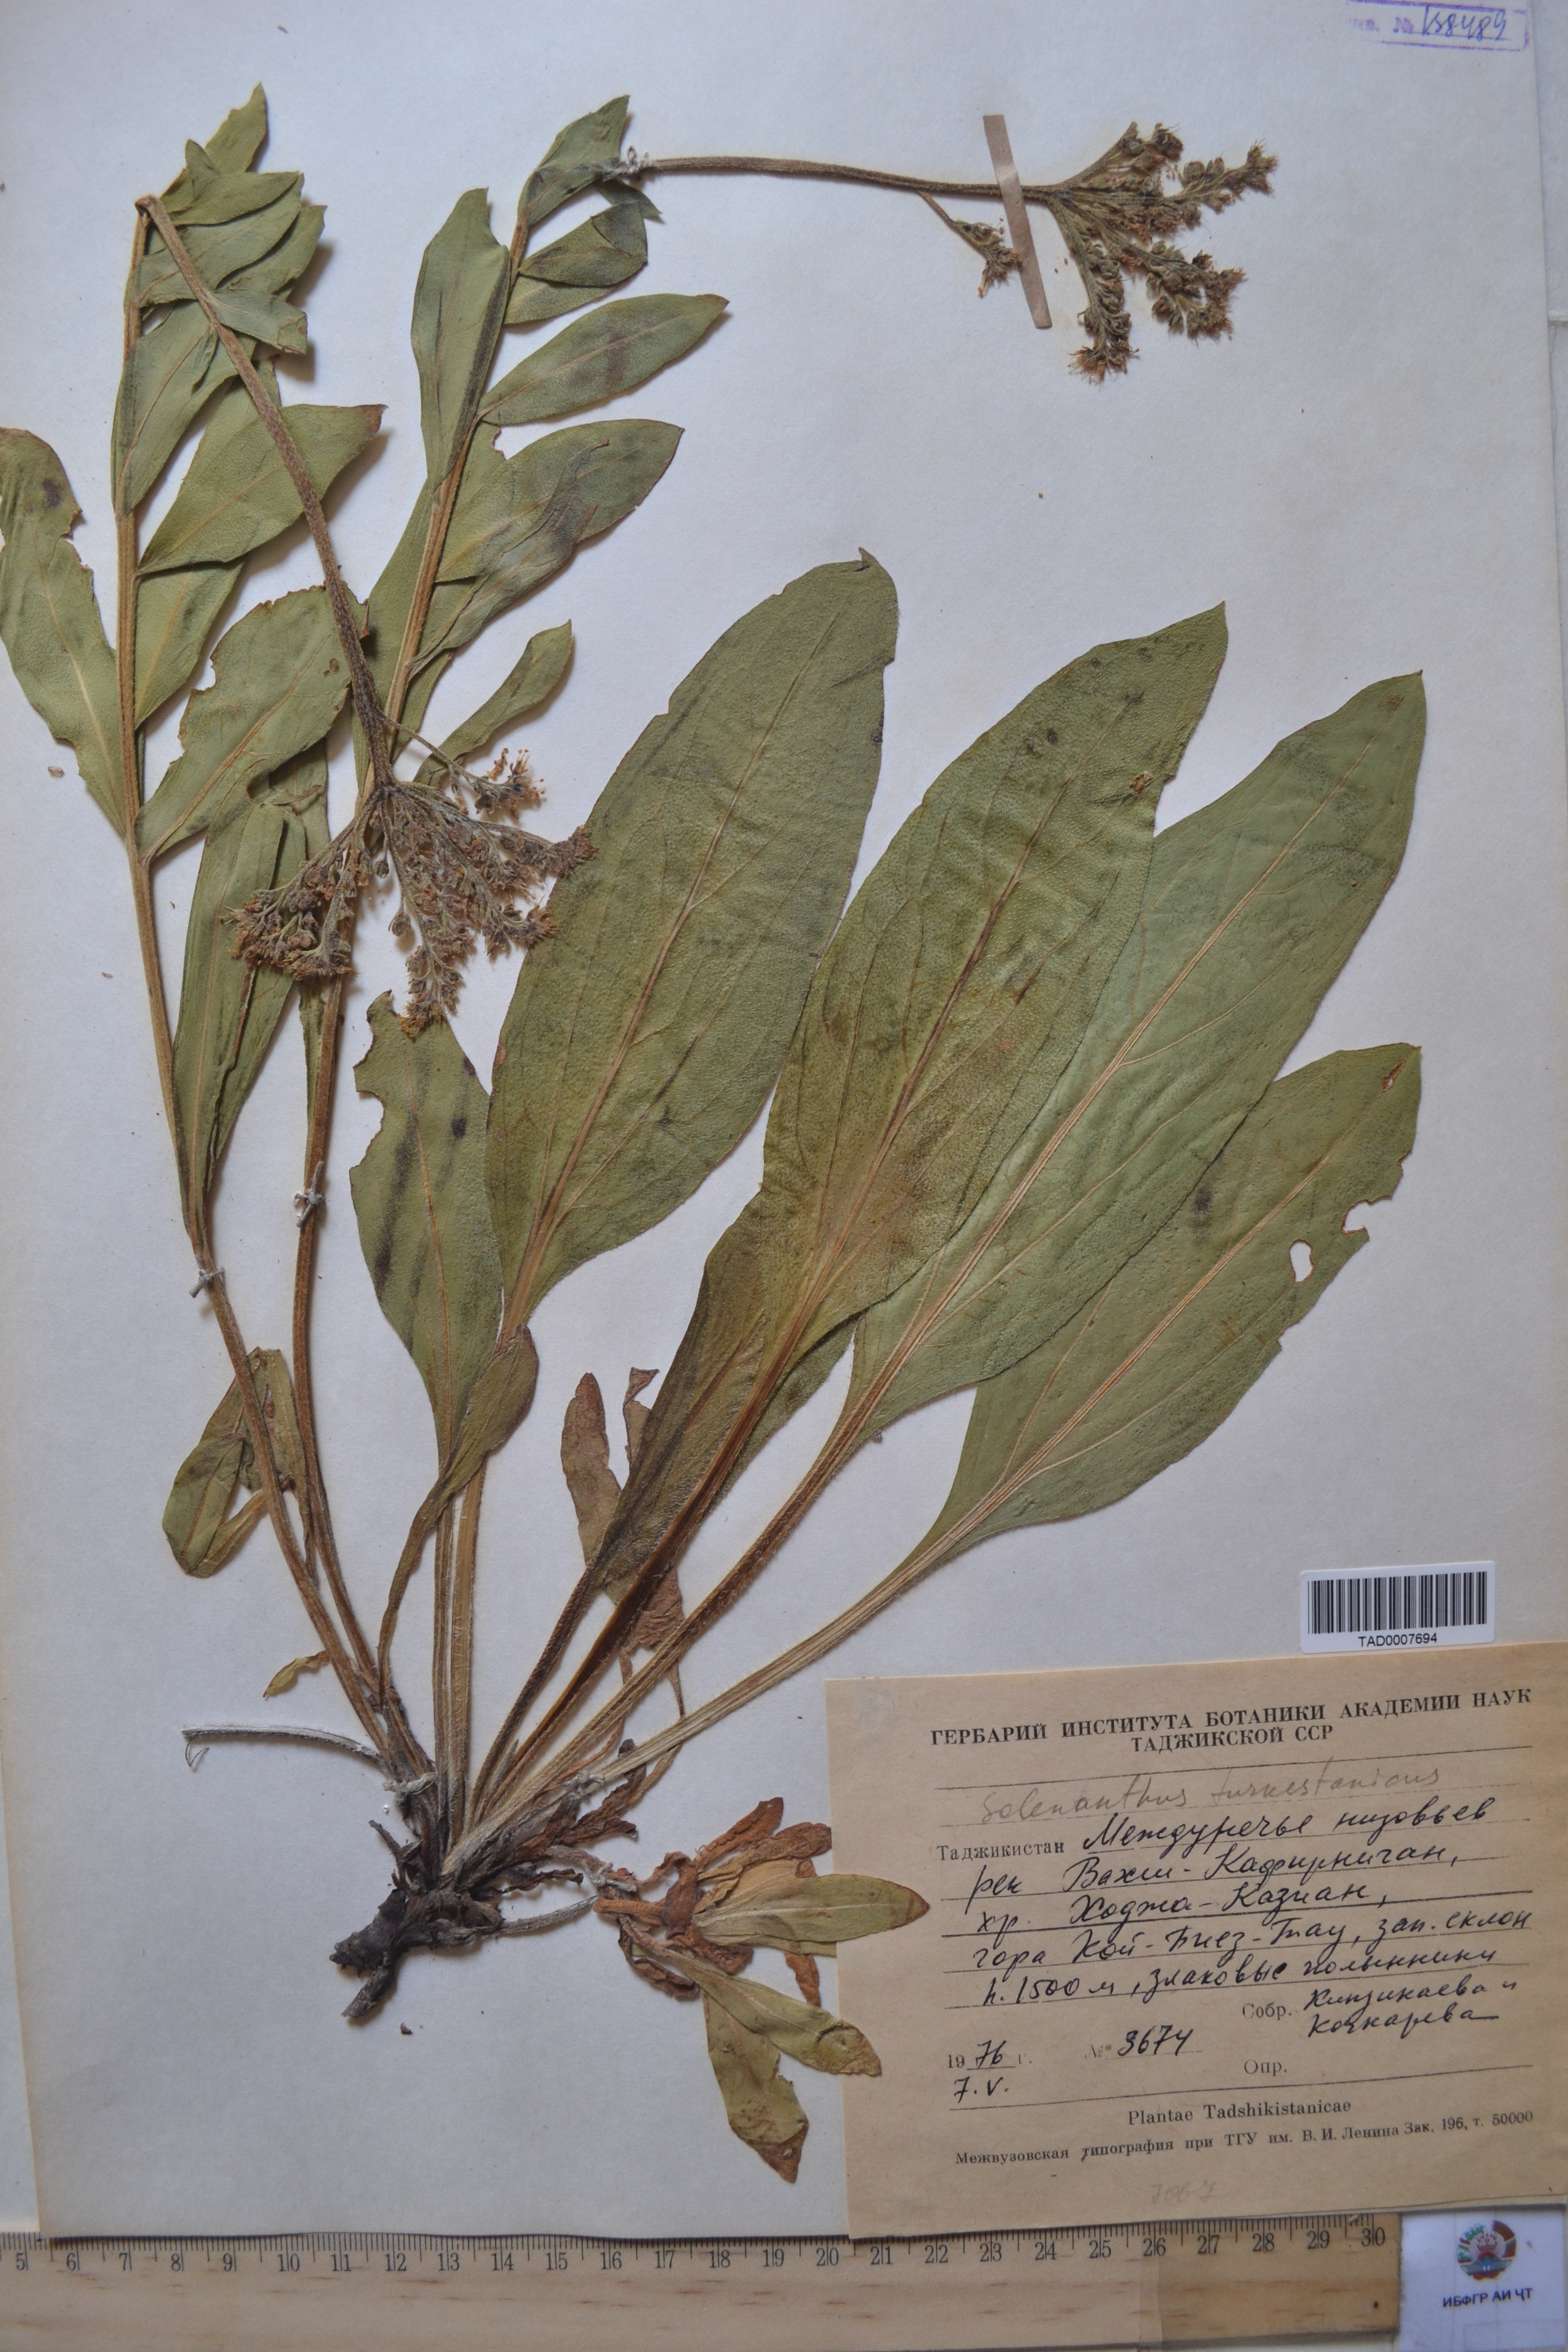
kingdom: Plantae
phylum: Tracheophyta
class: Magnoliopsida
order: Boraginales
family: Boraginaceae
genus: Solenanthus
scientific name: Solenanthus turkestanicus
